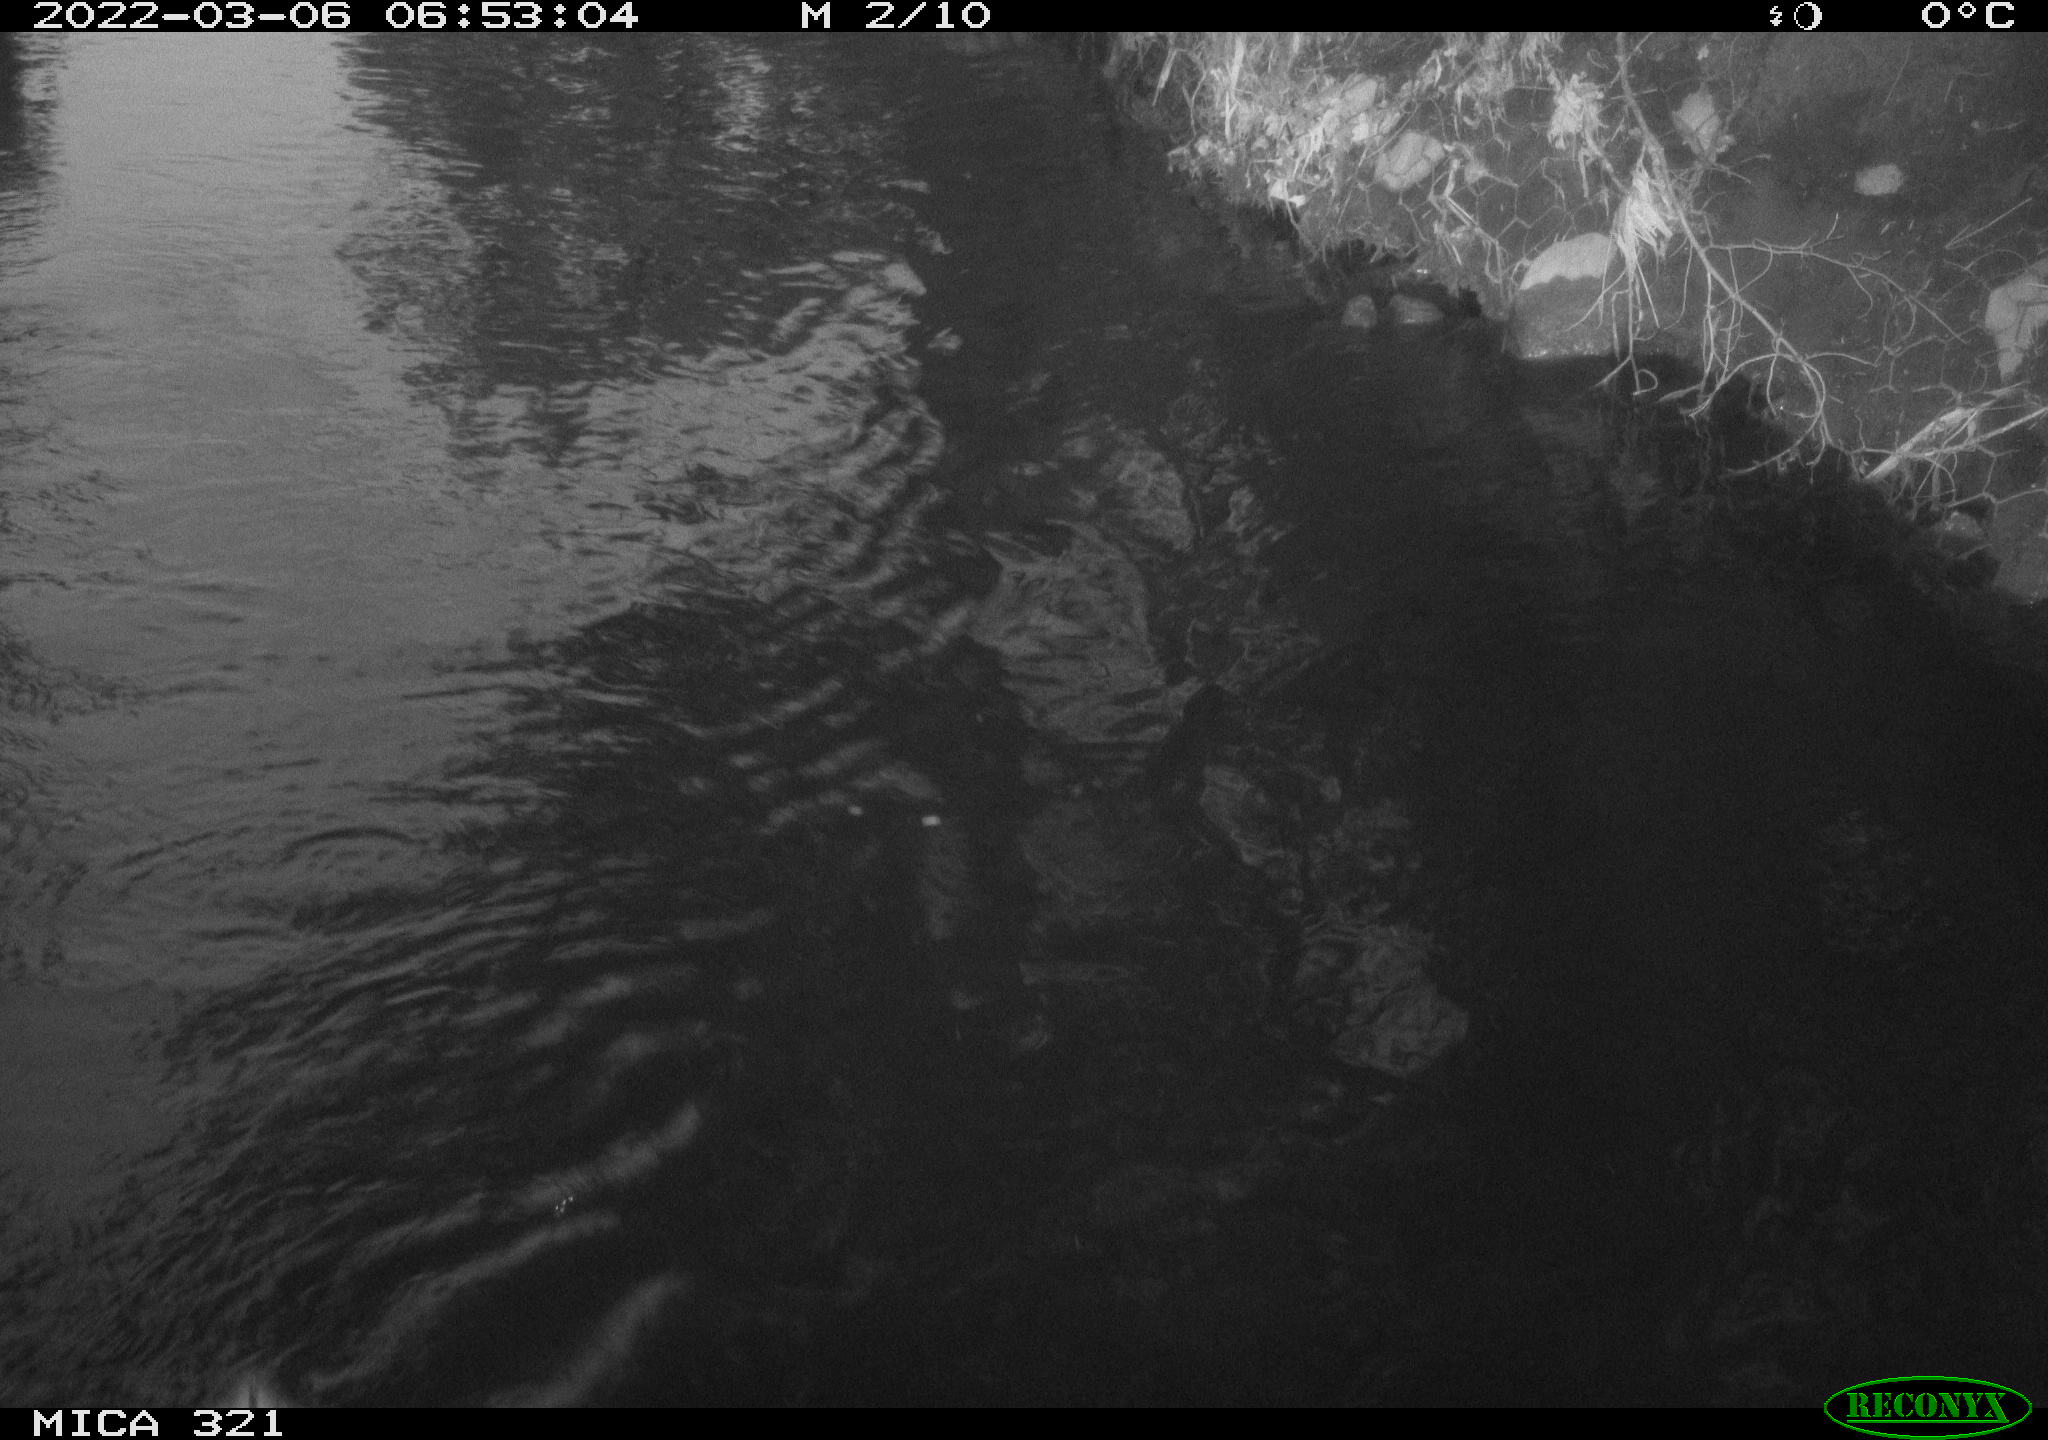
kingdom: Animalia
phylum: Chordata
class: Aves
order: Anseriformes
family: Anatidae
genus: Anas
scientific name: Anas platyrhynchos
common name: Mallard
